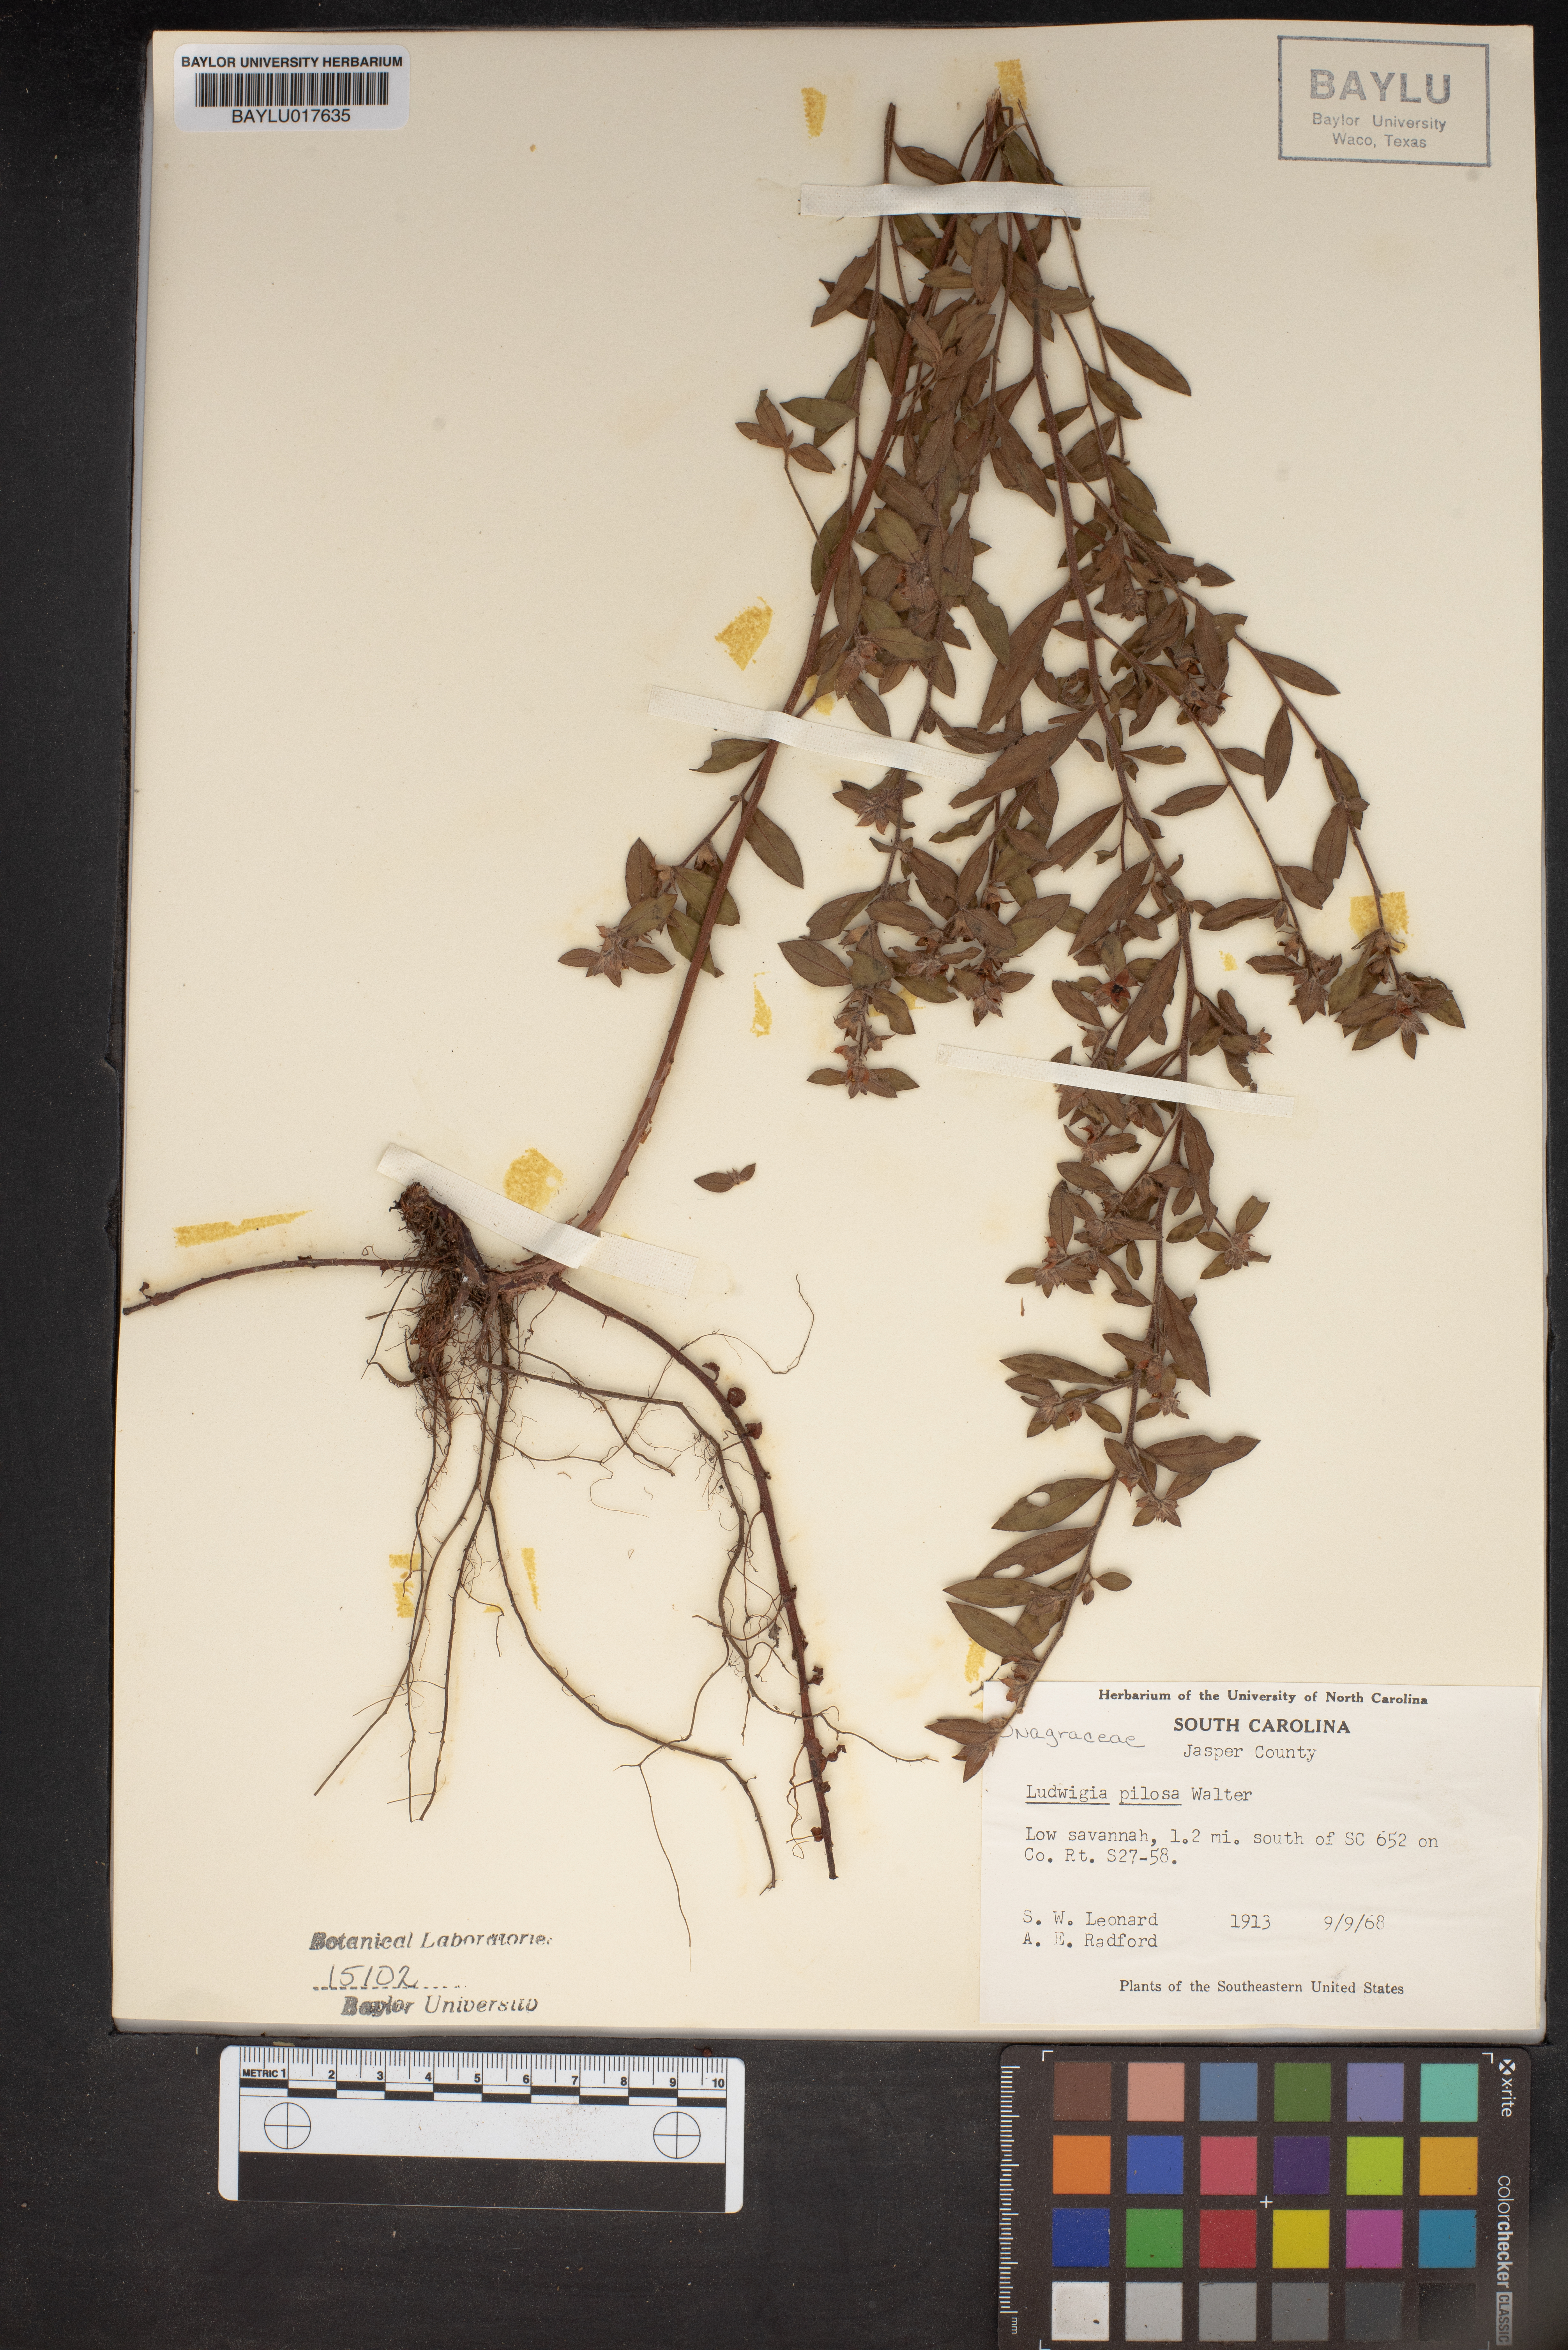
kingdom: Plantae
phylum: Tracheophyta
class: Magnoliopsida
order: Myrtales
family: Onagraceae
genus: Ludwigia
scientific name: Ludwigia pilosa
